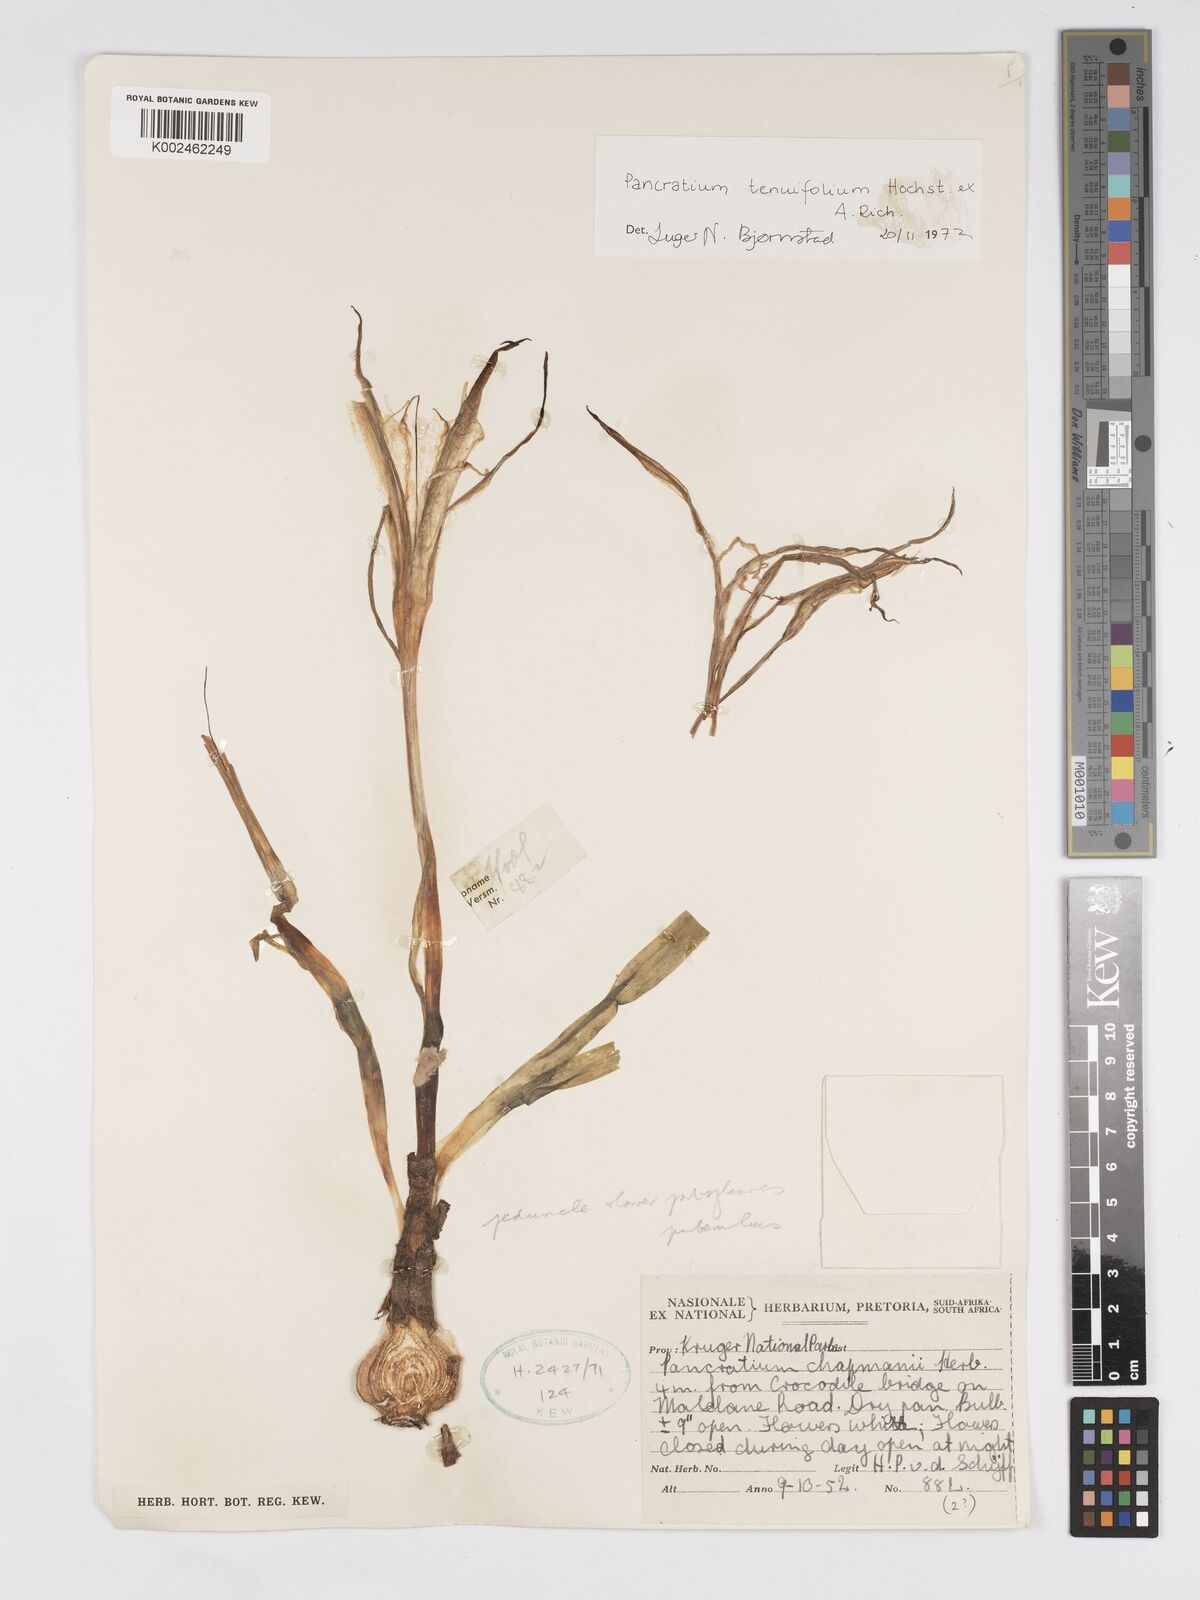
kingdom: Plantae
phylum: Tracheophyta
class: Liliopsida
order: Asparagales
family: Amaryllidaceae
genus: Pancratium
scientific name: Pancratium tenuifolium
